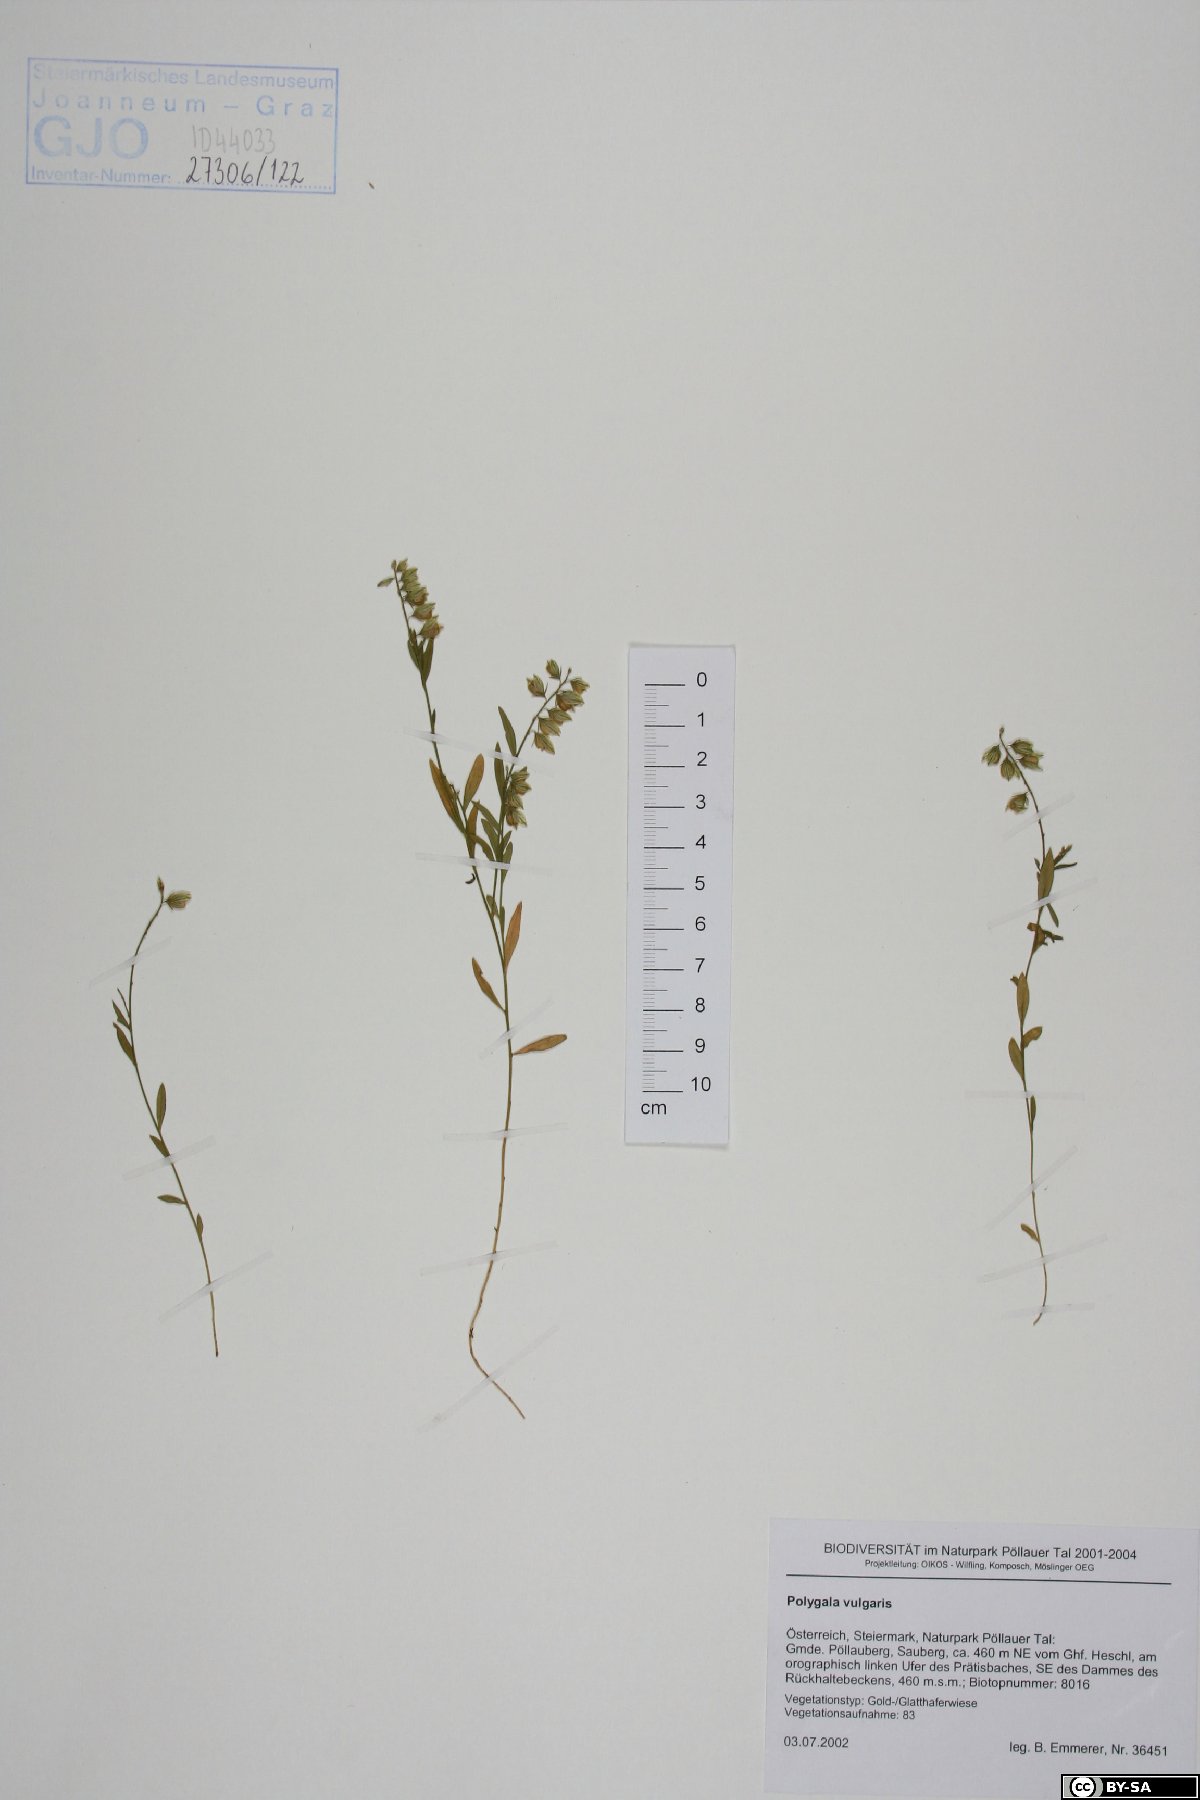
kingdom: Plantae
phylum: Tracheophyta
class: Magnoliopsida
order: Fabales
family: Polygalaceae
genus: Polygala
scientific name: Polygala vulgaris
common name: Common milkwort
